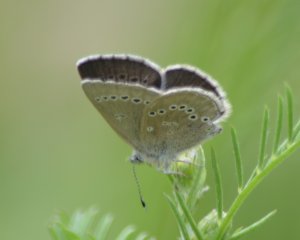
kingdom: Animalia
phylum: Arthropoda
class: Insecta
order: Lepidoptera
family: Lycaenidae
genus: Glaucopsyche
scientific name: Glaucopsyche lygdamus
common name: Silvery Blue
